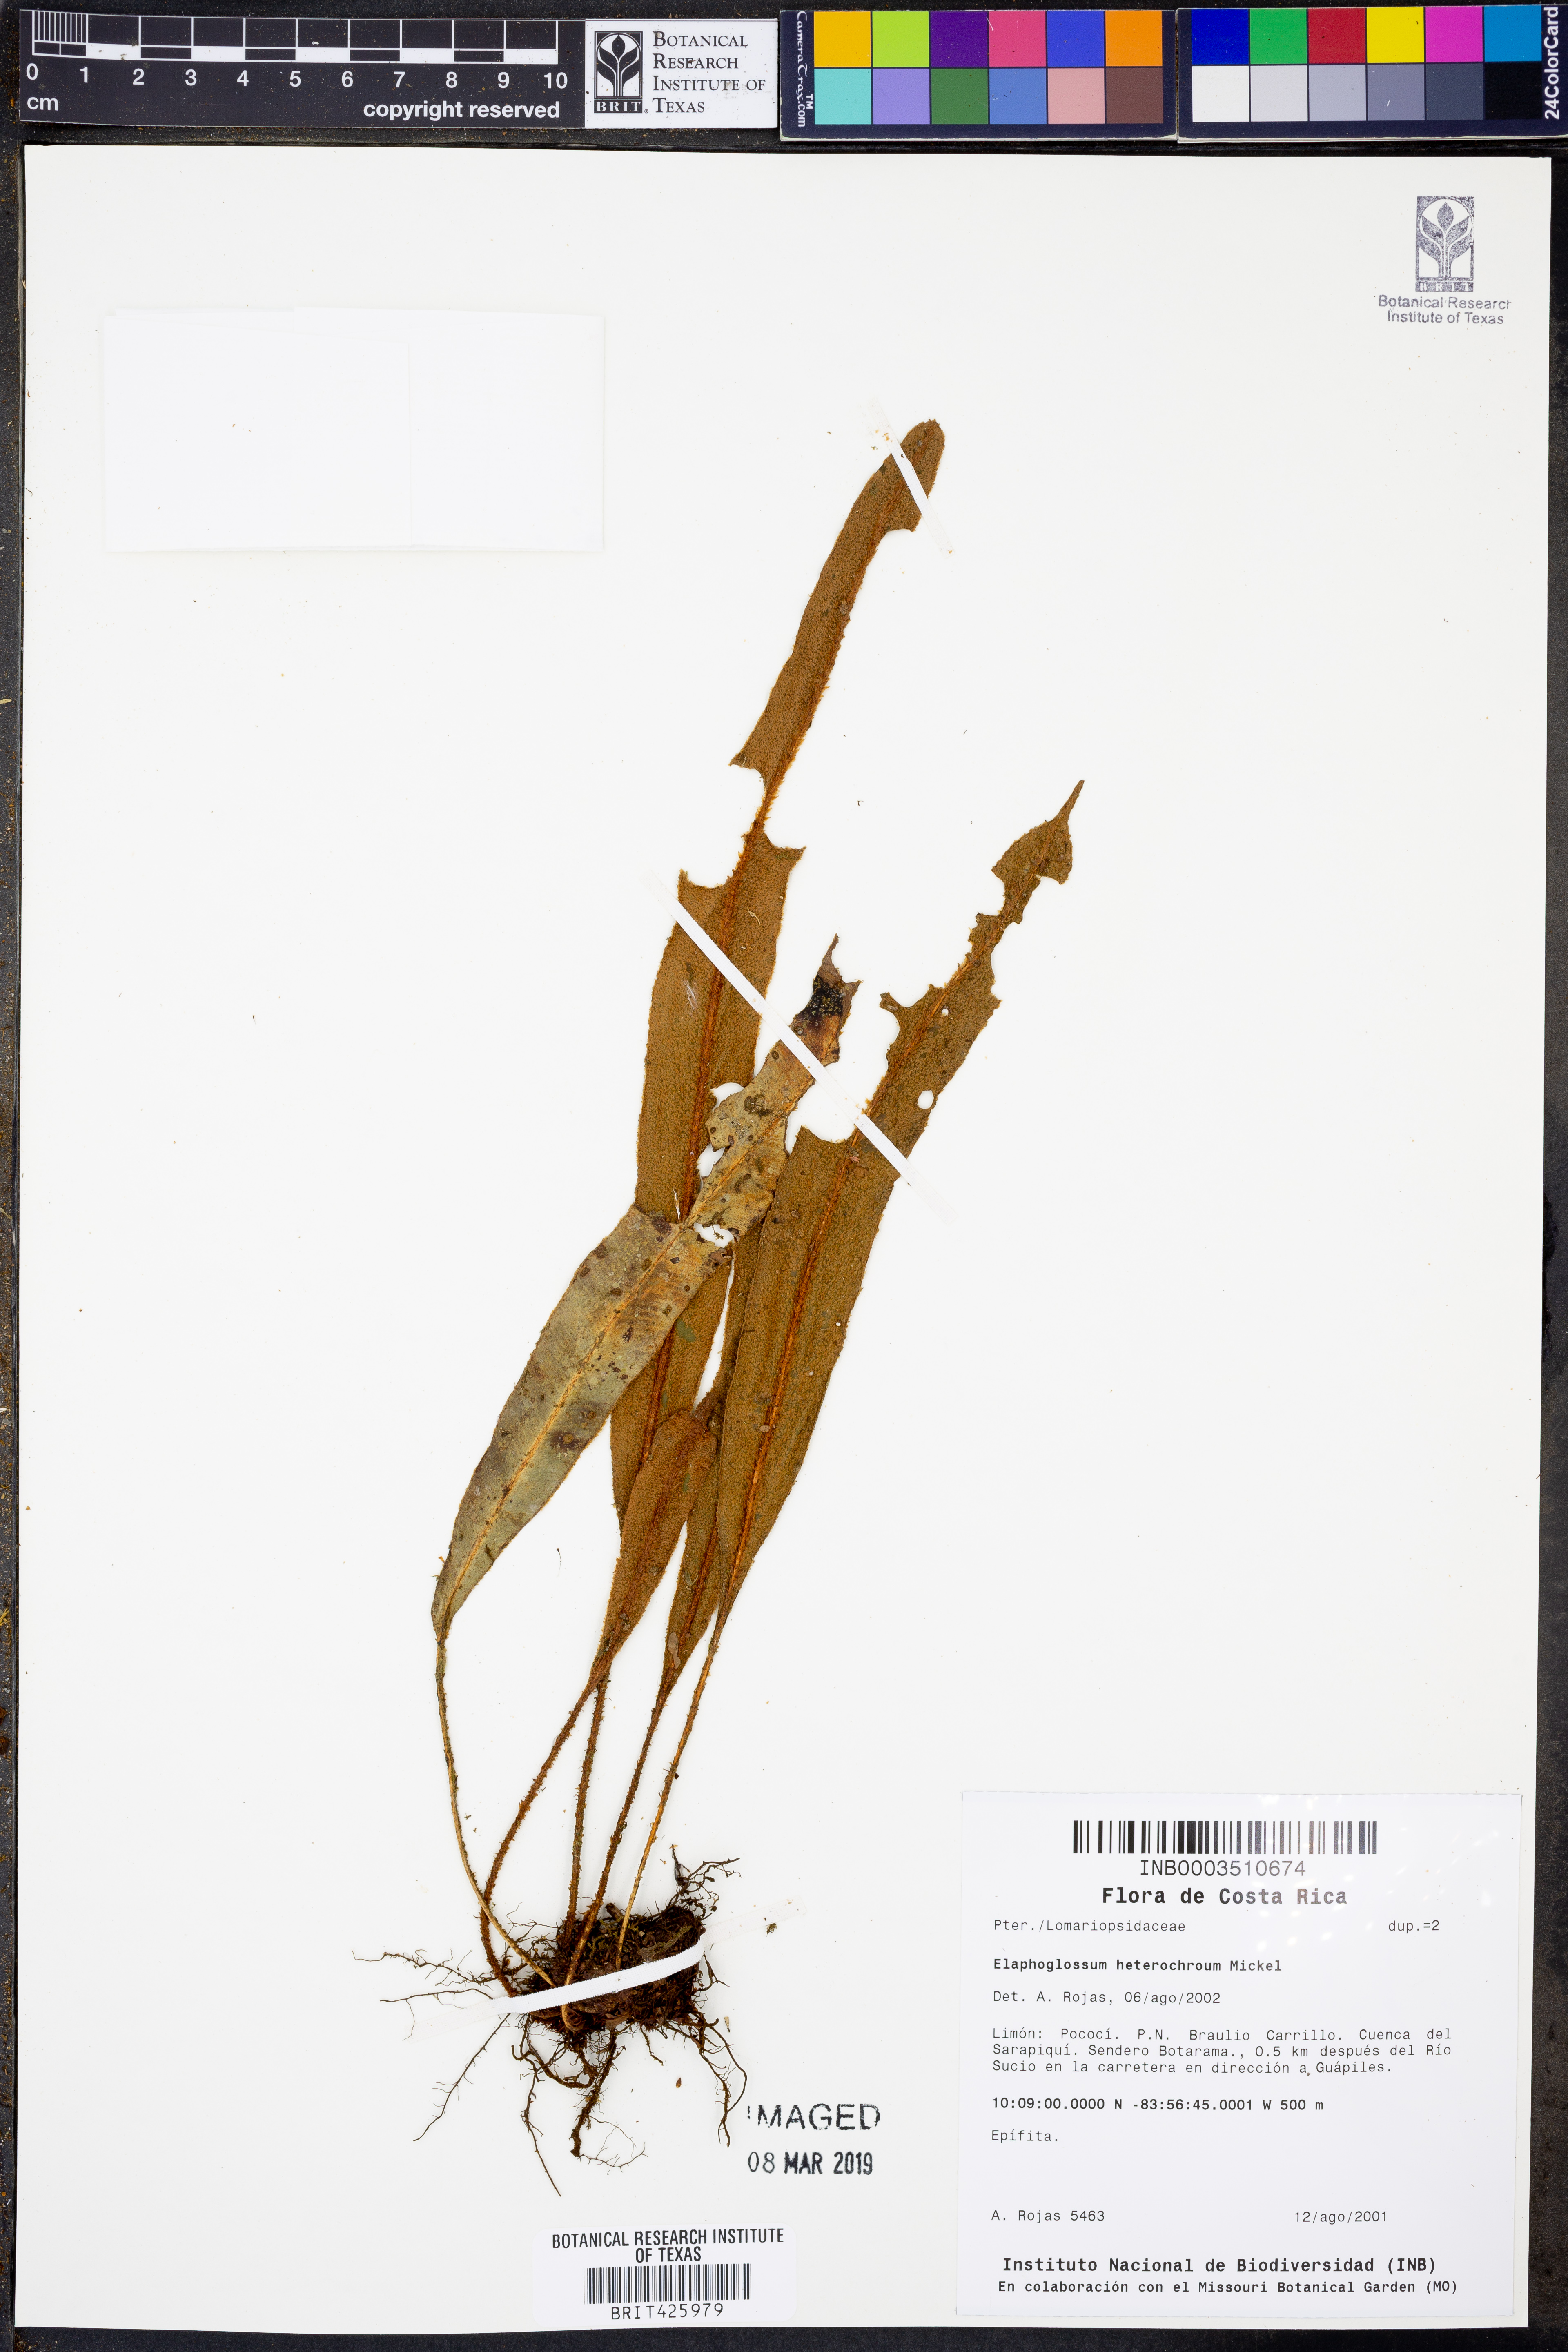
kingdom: Plantae
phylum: Tracheophyta
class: Polypodiopsida
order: Polypodiales
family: Dryopteridaceae
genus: Elaphoglossum
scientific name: Elaphoglossum heterochroum
